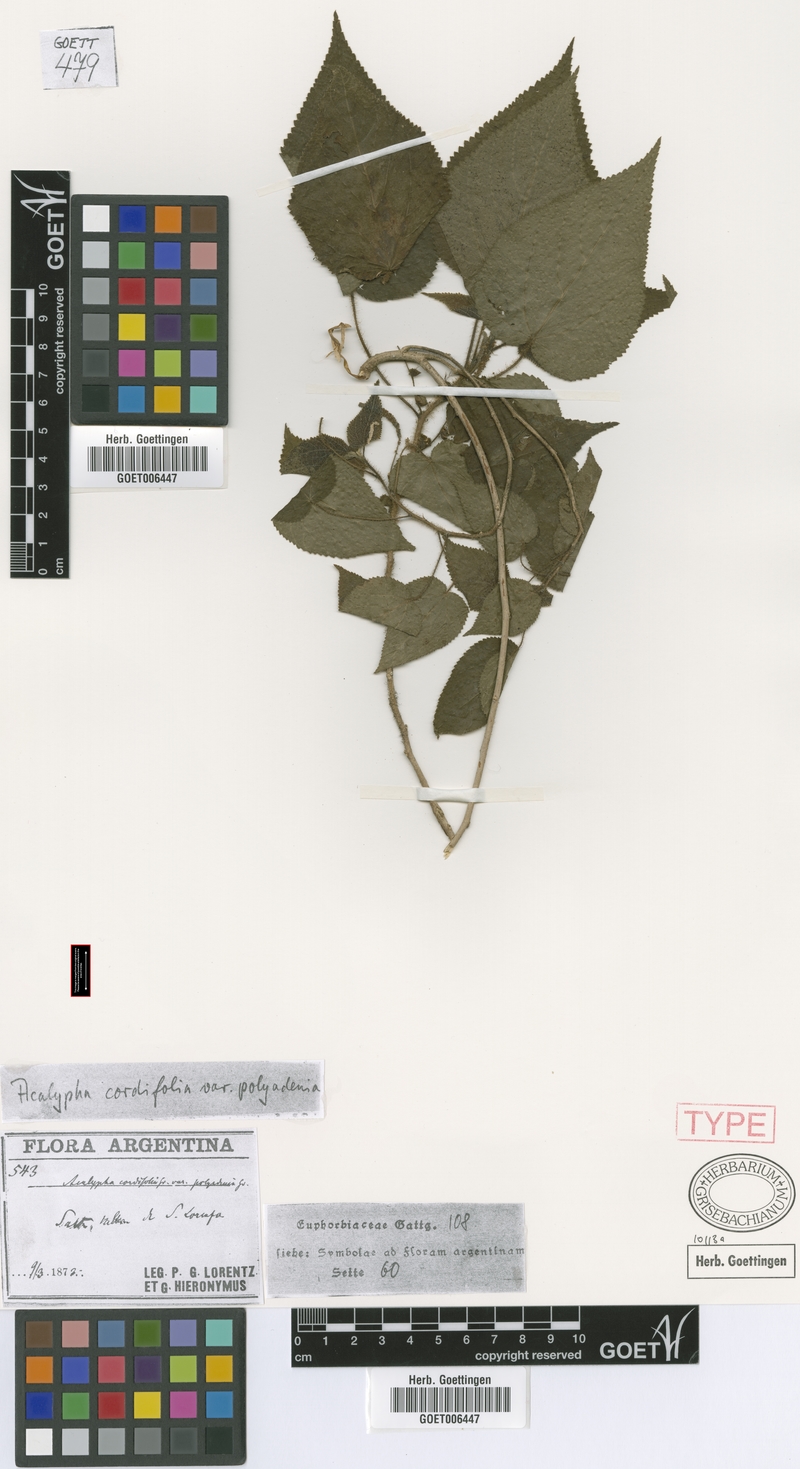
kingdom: Plantae
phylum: Tracheophyta
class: Magnoliopsida
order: Malpighiales
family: Euphorbiaceae
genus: Acalypha
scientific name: Acalypha plicata
